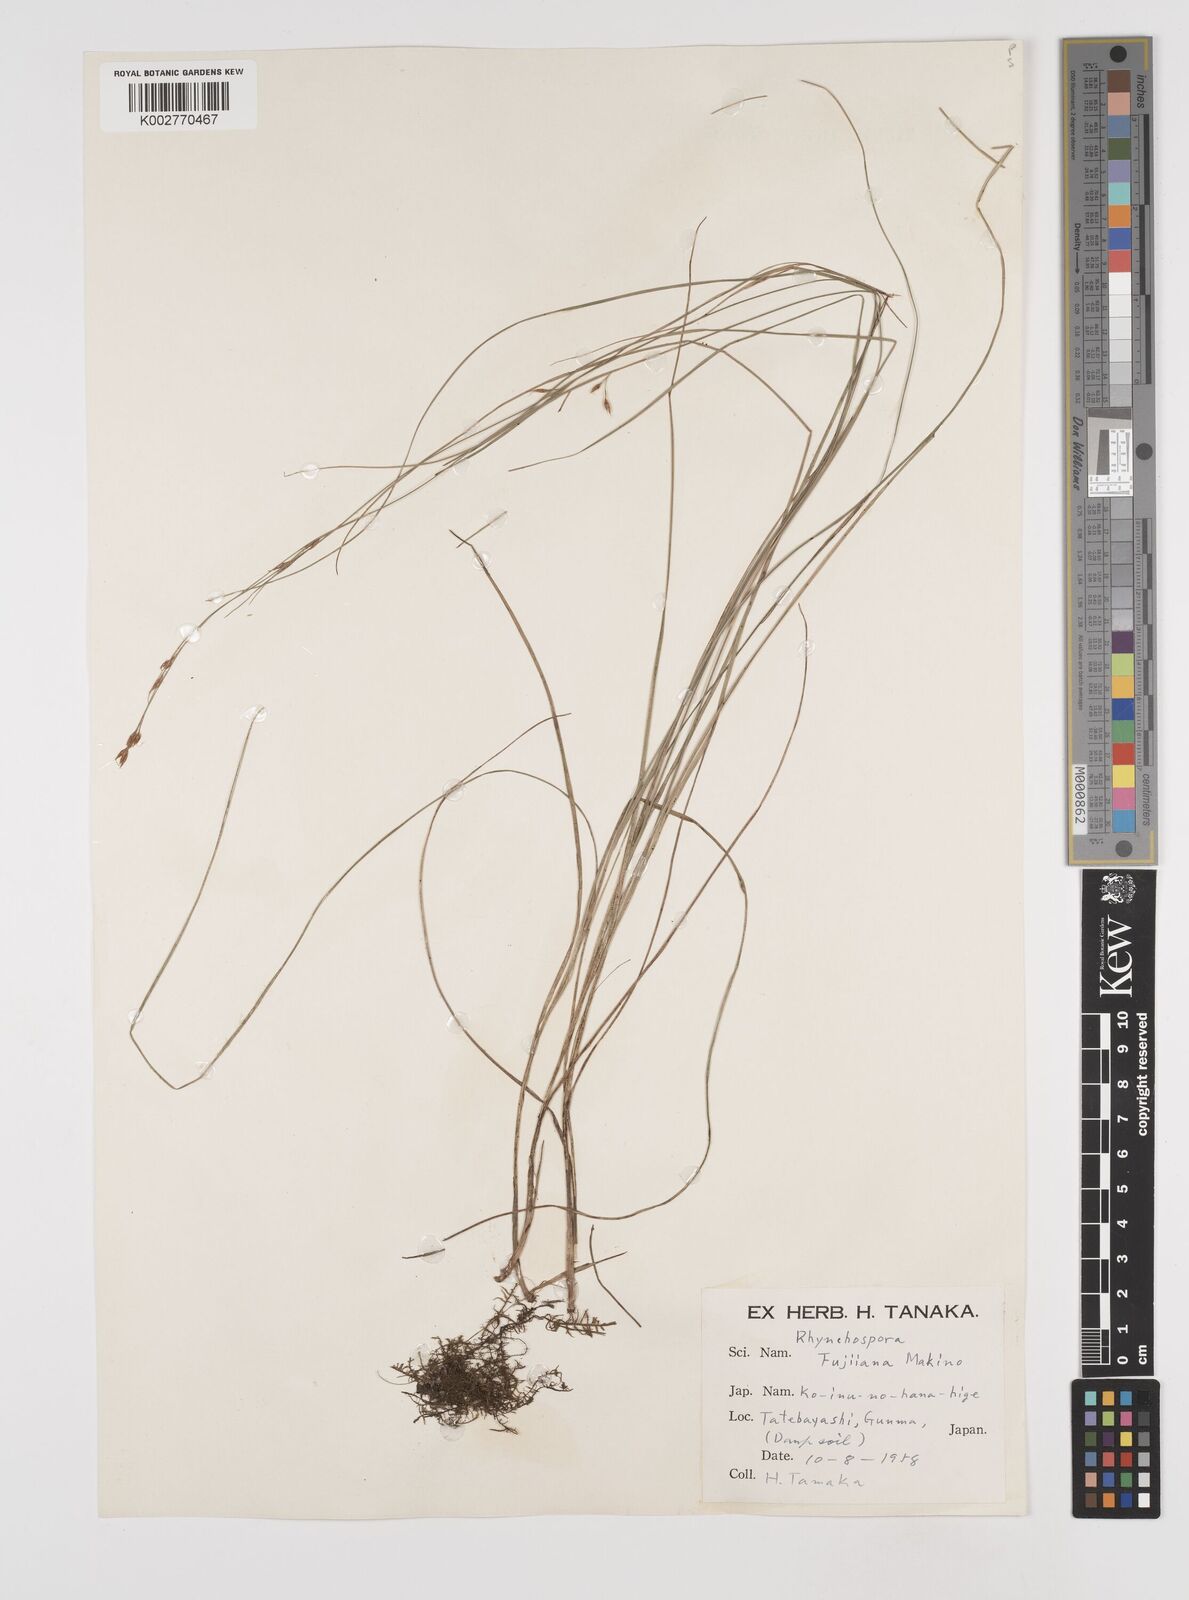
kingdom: Plantae
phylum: Tracheophyta
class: Liliopsida
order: Poales
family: Cyperaceae
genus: Rhynchospora
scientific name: Rhynchospora fujiiana
